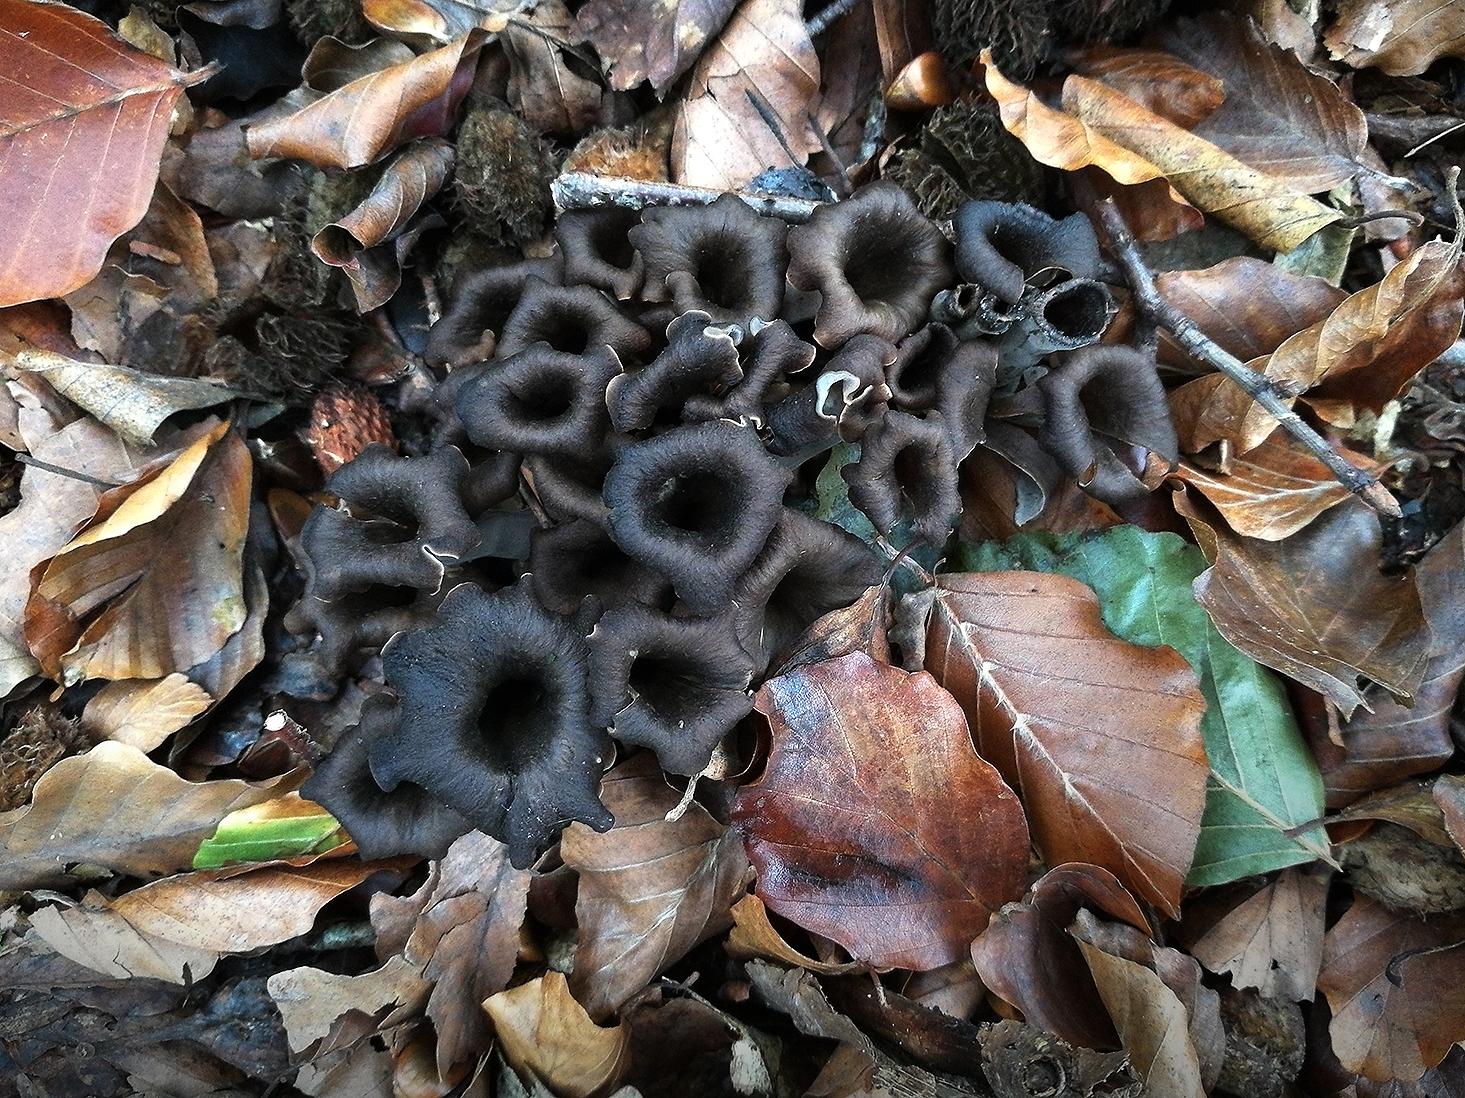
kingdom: Fungi
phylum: Basidiomycota
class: Agaricomycetes
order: Cantharellales
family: Hydnaceae
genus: Craterellus
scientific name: Craterellus cornucopioides
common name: trompetsvamp
